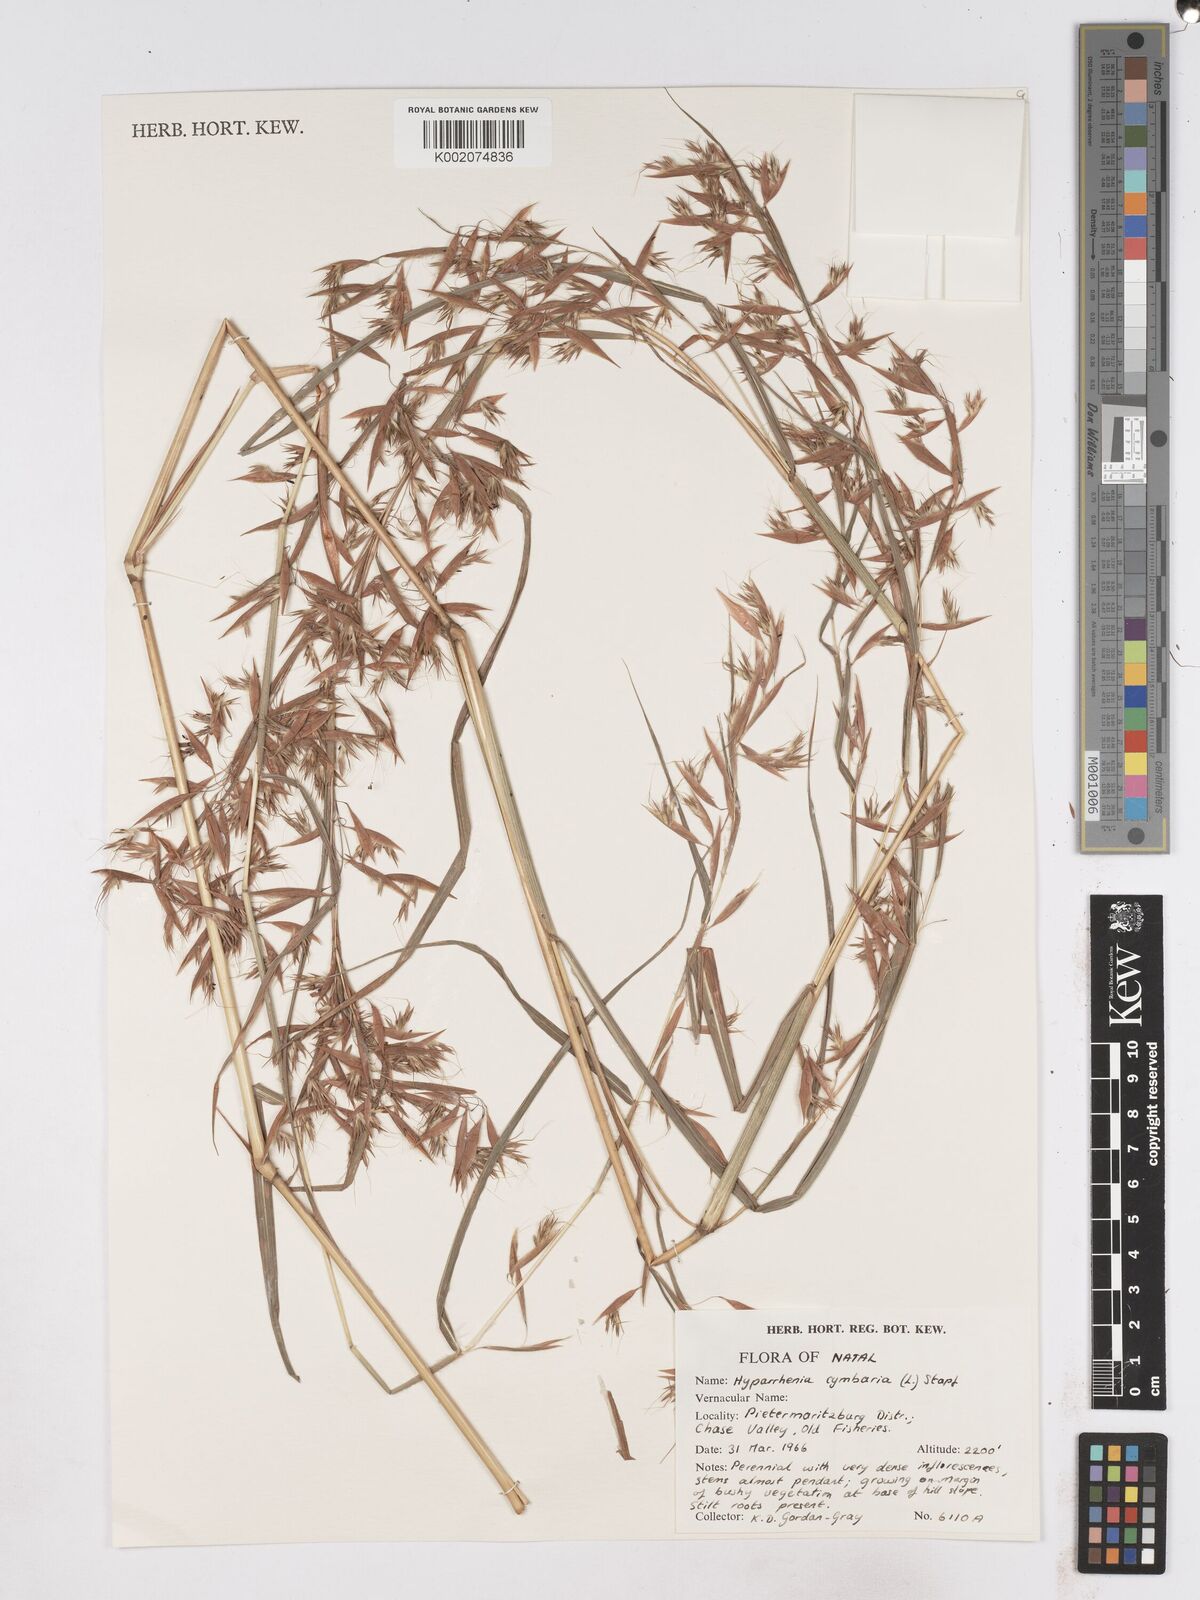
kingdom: Plantae
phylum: Tracheophyta
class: Liliopsida
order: Poales
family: Poaceae
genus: Hyparrhenia
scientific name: Hyparrhenia cymbaria
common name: Boat thatching grass
